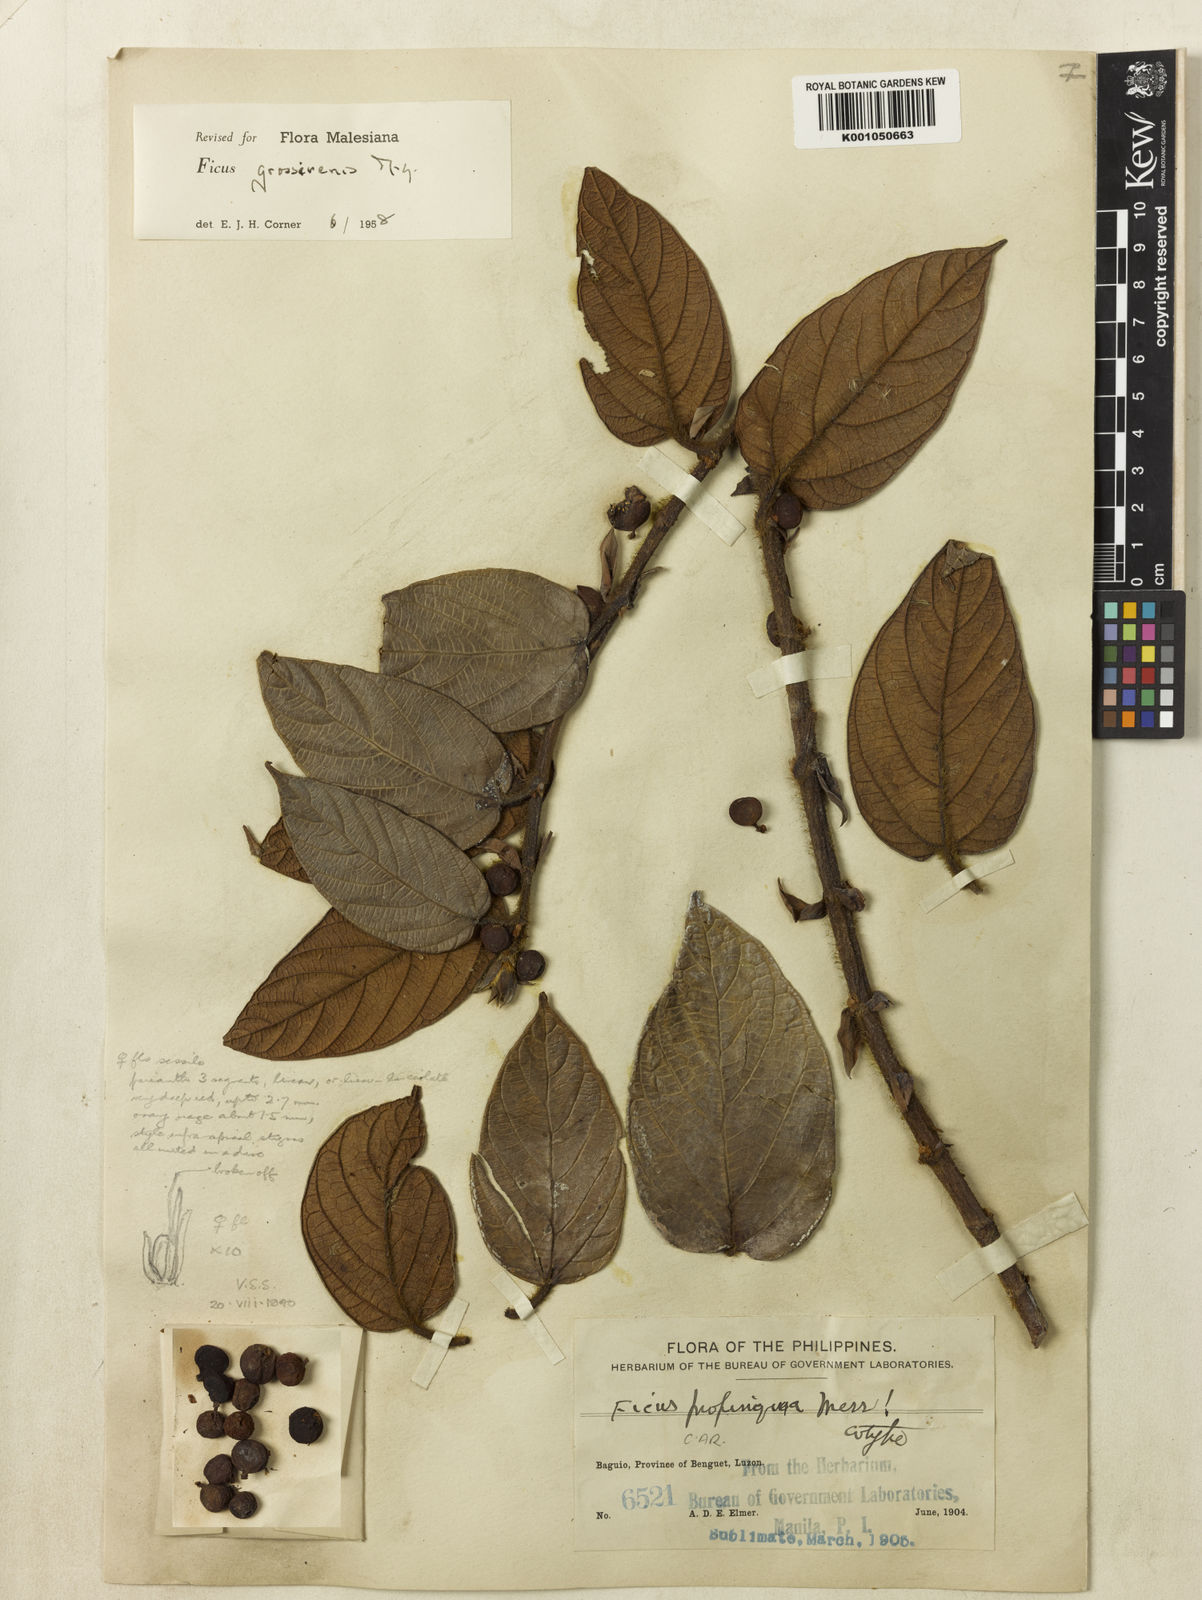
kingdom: Plantae
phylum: Tracheophyta
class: Magnoliopsida
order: Rosales
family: Moraceae
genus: Ficus
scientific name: Ficus villosa
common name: Villous fig
